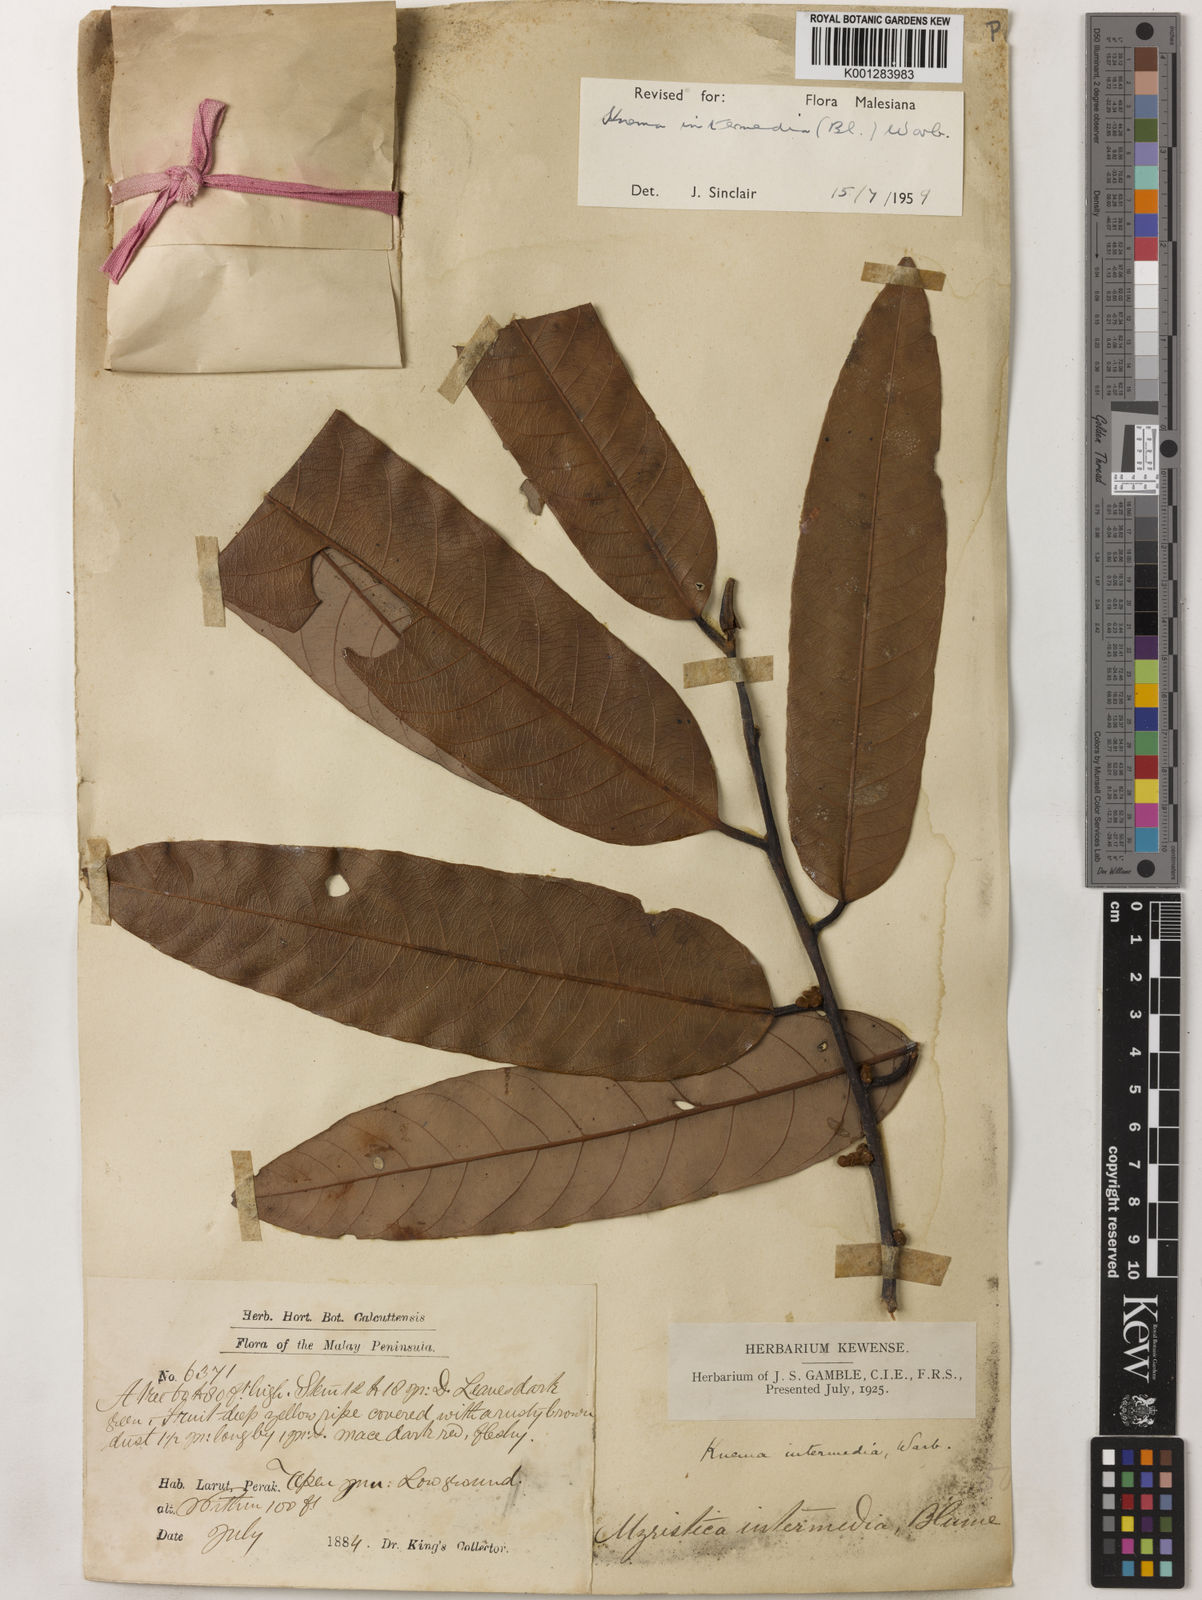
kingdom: Plantae
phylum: Tracheophyta
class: Magnoliopsida
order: Magnoliales
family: Myristicaceae
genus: Knema
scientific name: Knema intermedia
